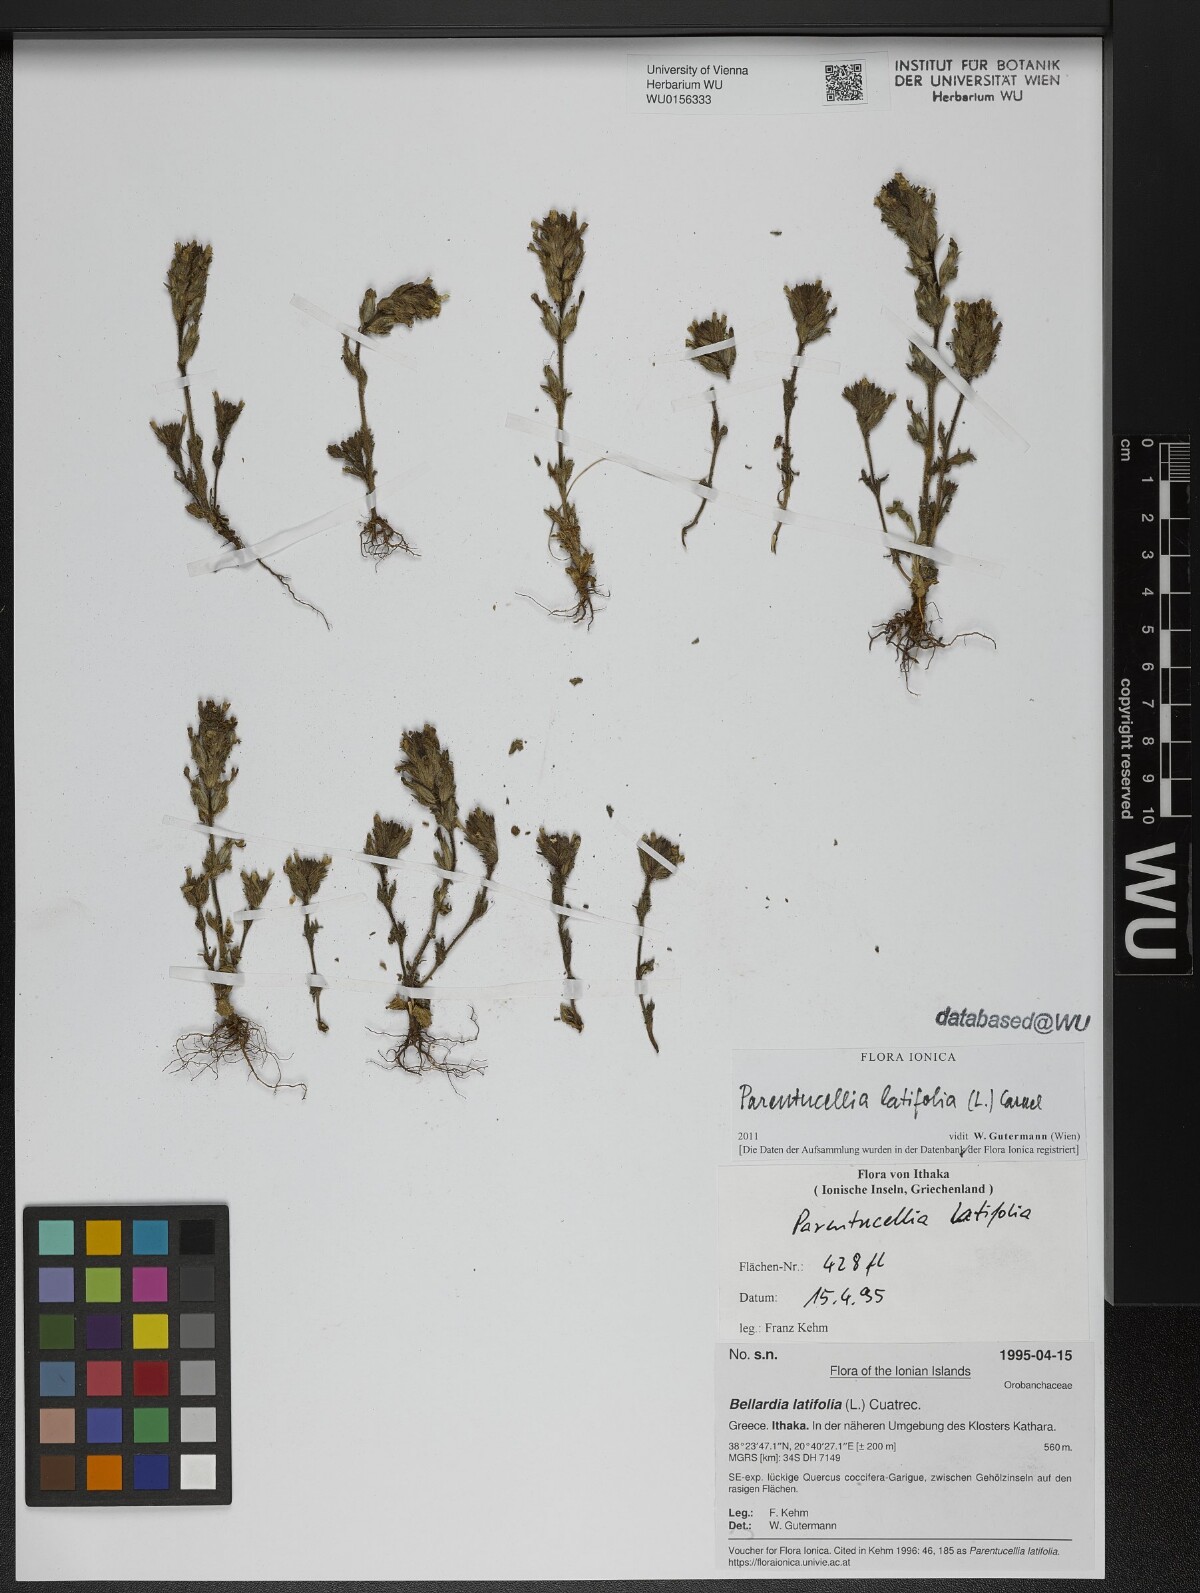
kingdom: Plantae
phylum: Tracheophyta
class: Magnoliopsida
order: Lamiales
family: Orobanchaceae
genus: Parentucellia
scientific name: Parentucellia latifolia
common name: Broadleaf glandweed
